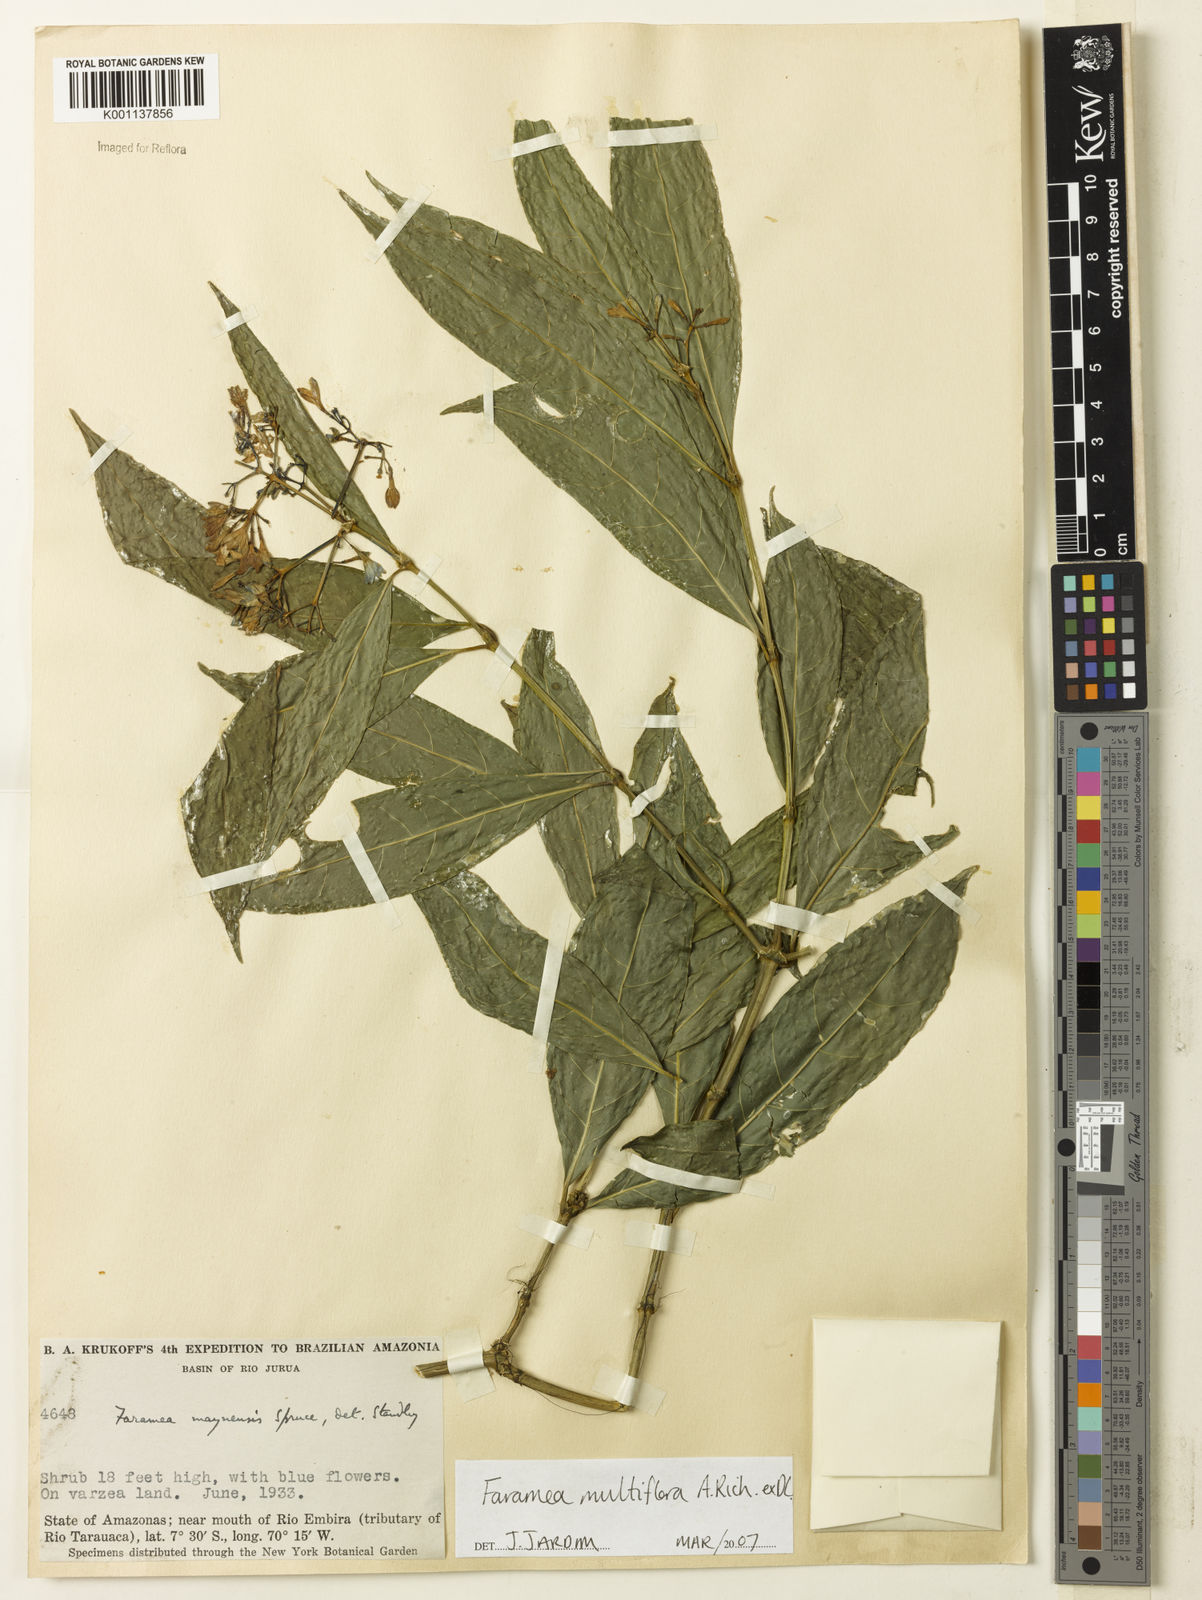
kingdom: Plantae
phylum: Tracheophyta
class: Magnoliopsida
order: Gentianales
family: Rubiaceae
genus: Faramea
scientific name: Faramea multiflora
